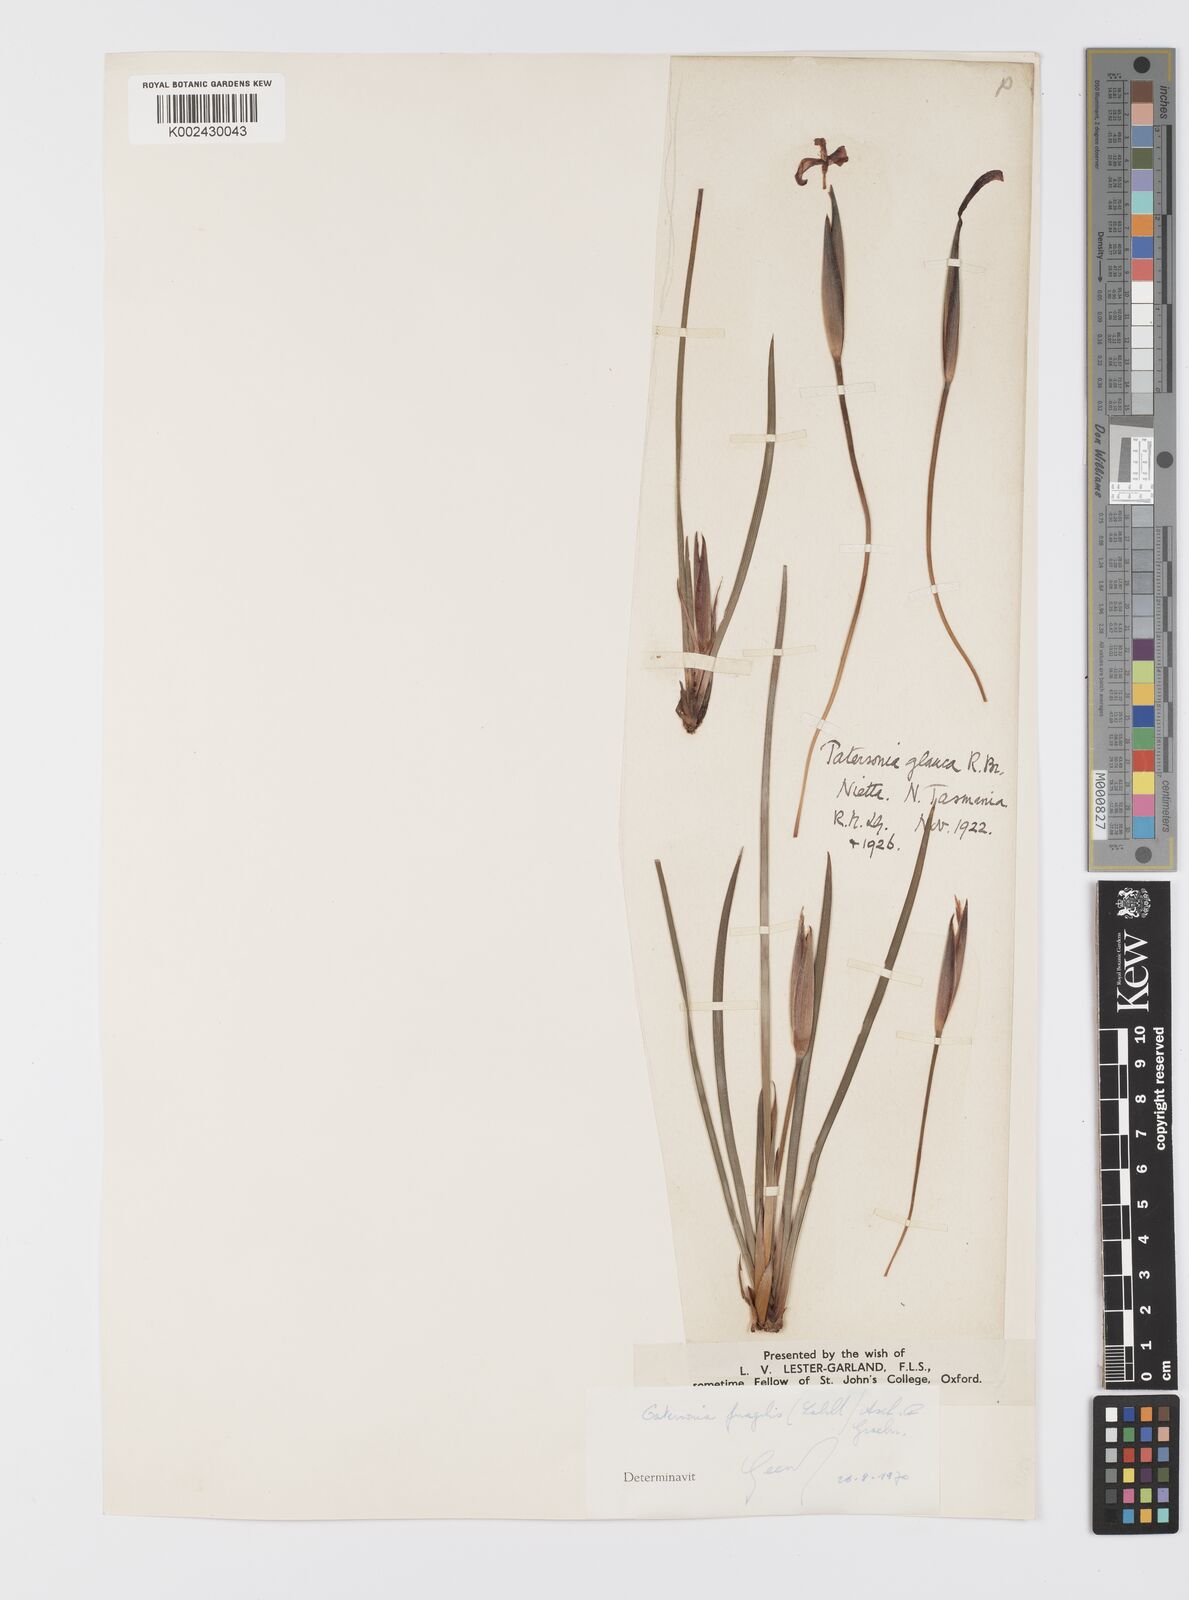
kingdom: Plantae
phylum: Tracheophyta
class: Liliopsida
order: Asparagales
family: Iridaceae
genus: Patersonia
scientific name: Patersonia fragilis
